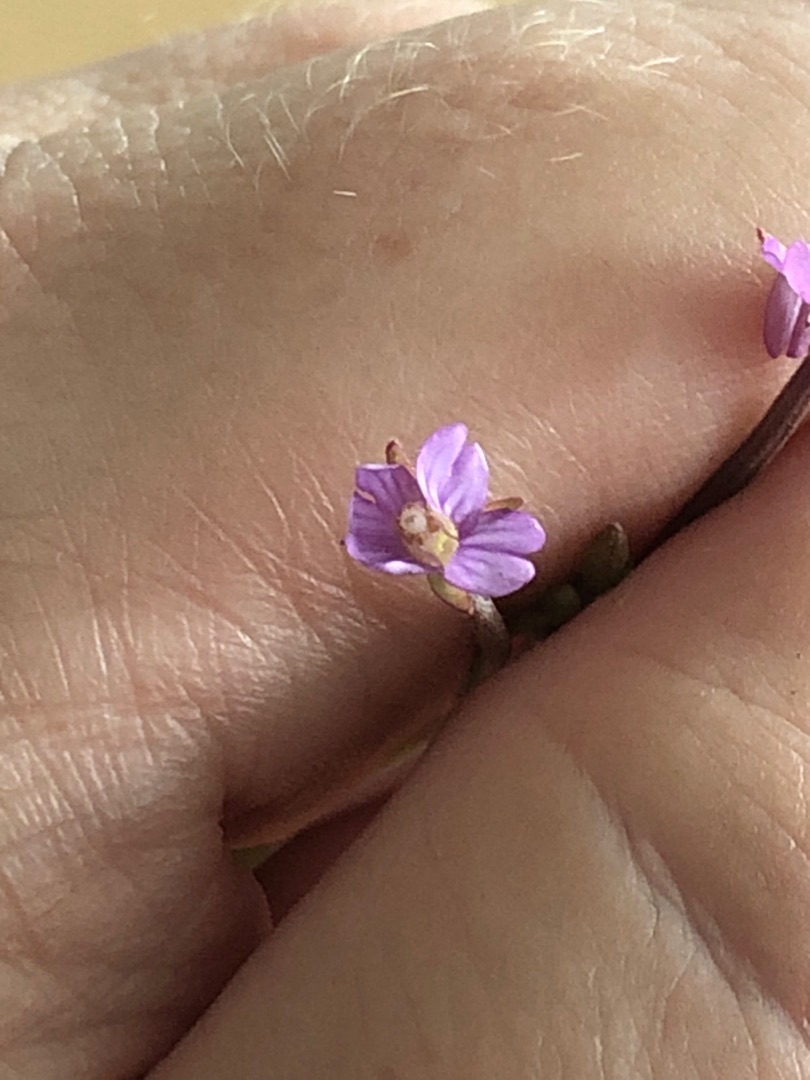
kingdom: Plantae
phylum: Tracheophyta
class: Magnoliopsida
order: Myrtales
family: Onagraceae
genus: Epilobium
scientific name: Epilobium obscurum
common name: Ris-dueurt
